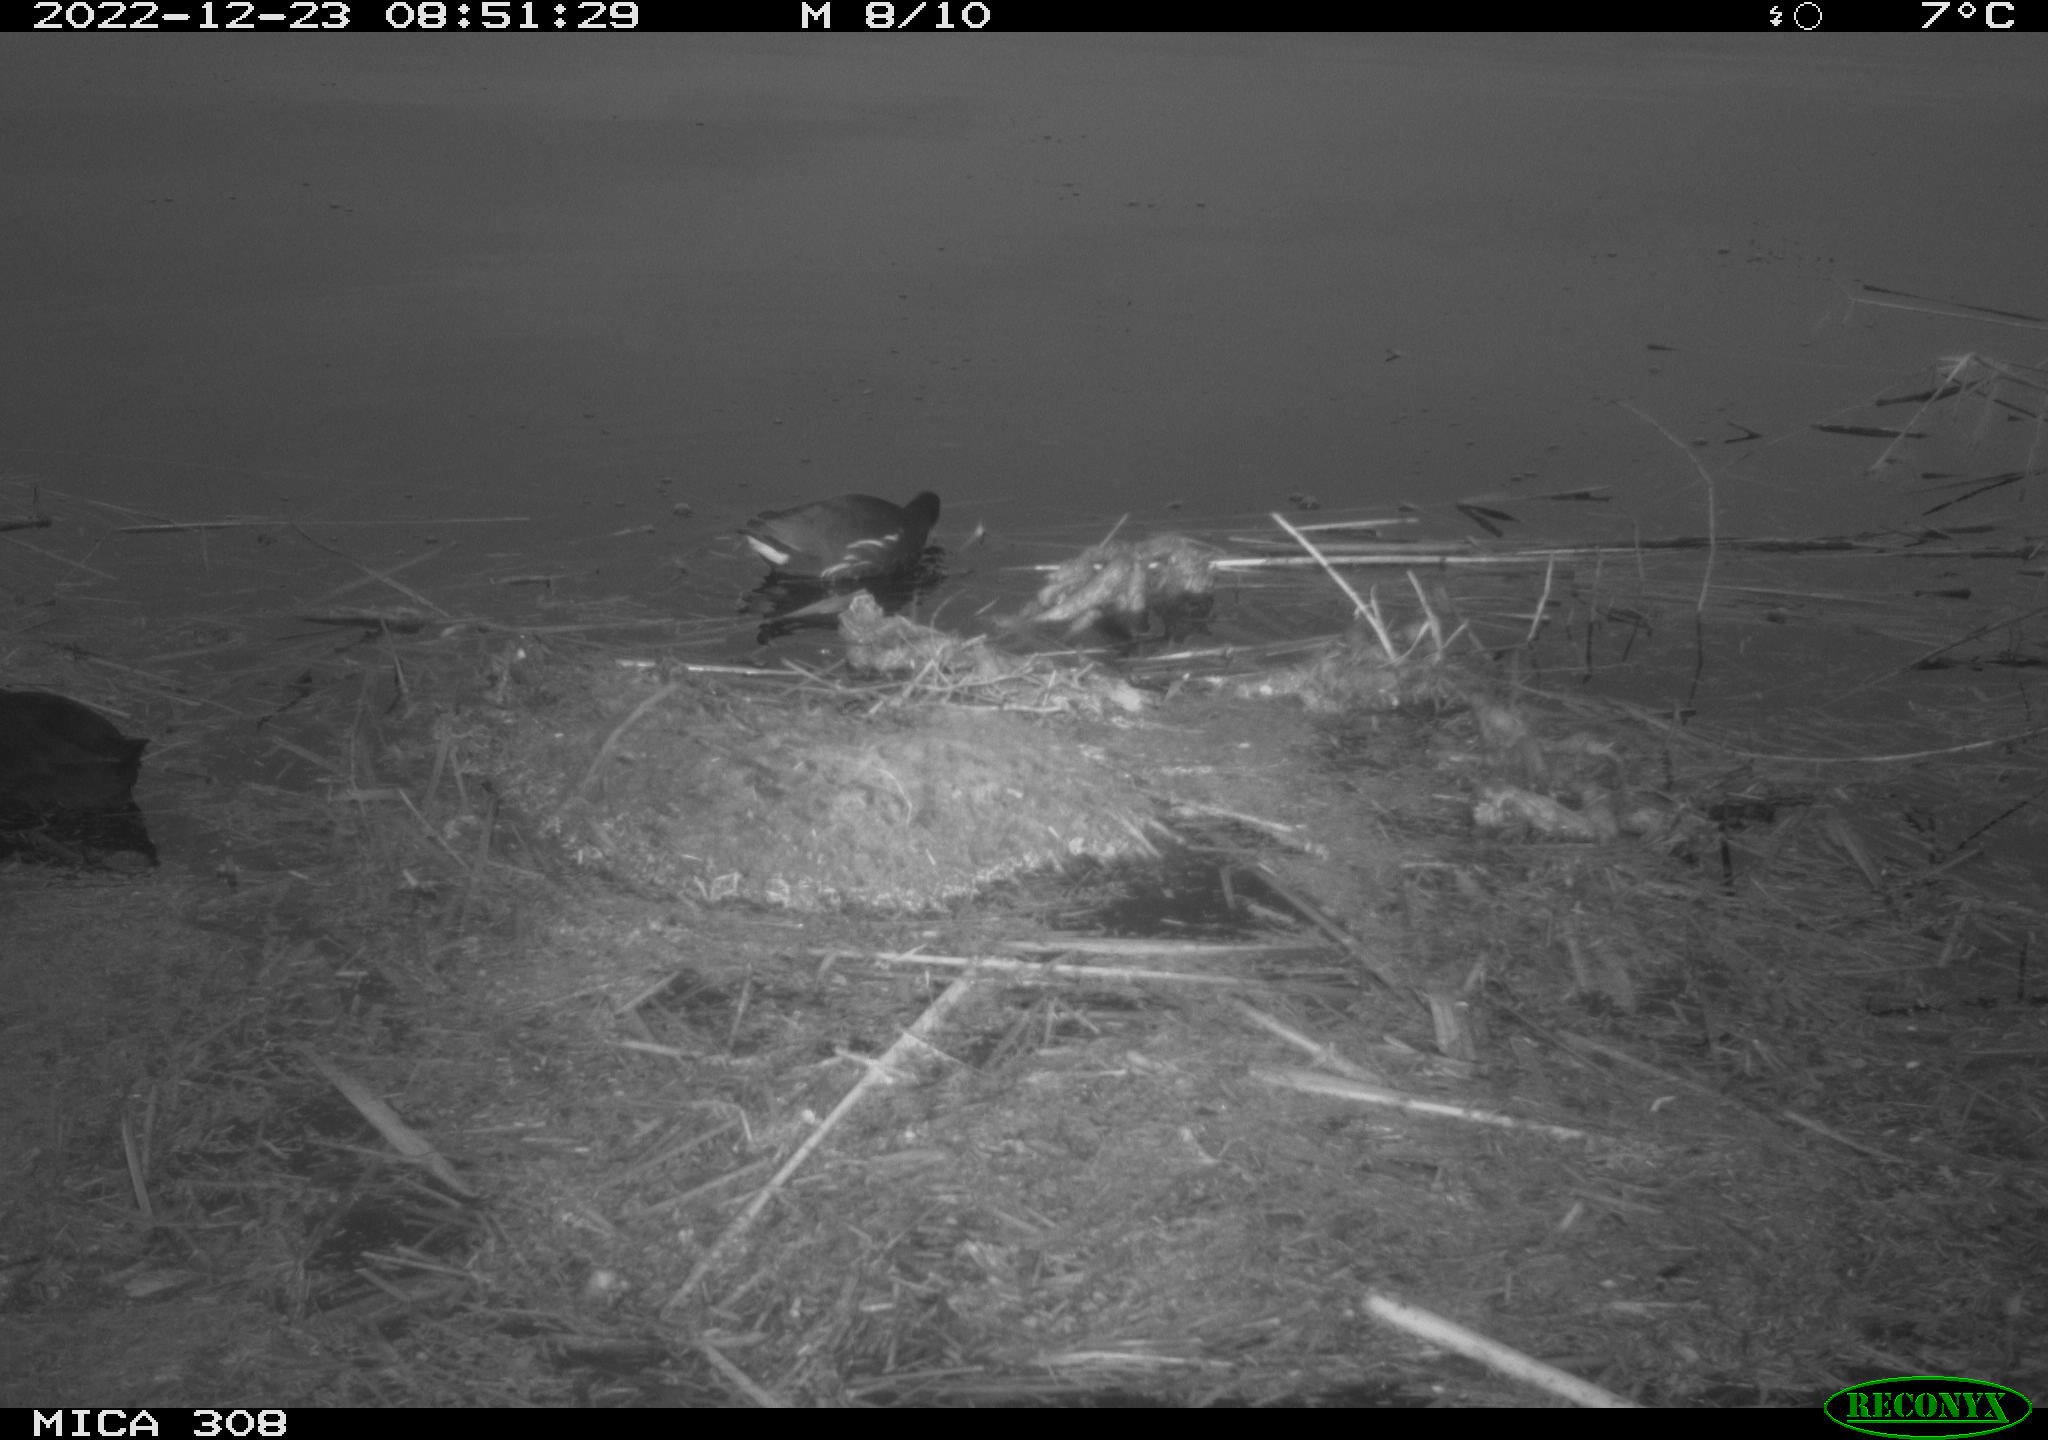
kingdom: Animalia
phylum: Chordata
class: Aves
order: Gruiformes
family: Rallidae
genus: Gallinula
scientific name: Gallinula chloropus
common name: Common moorhen
